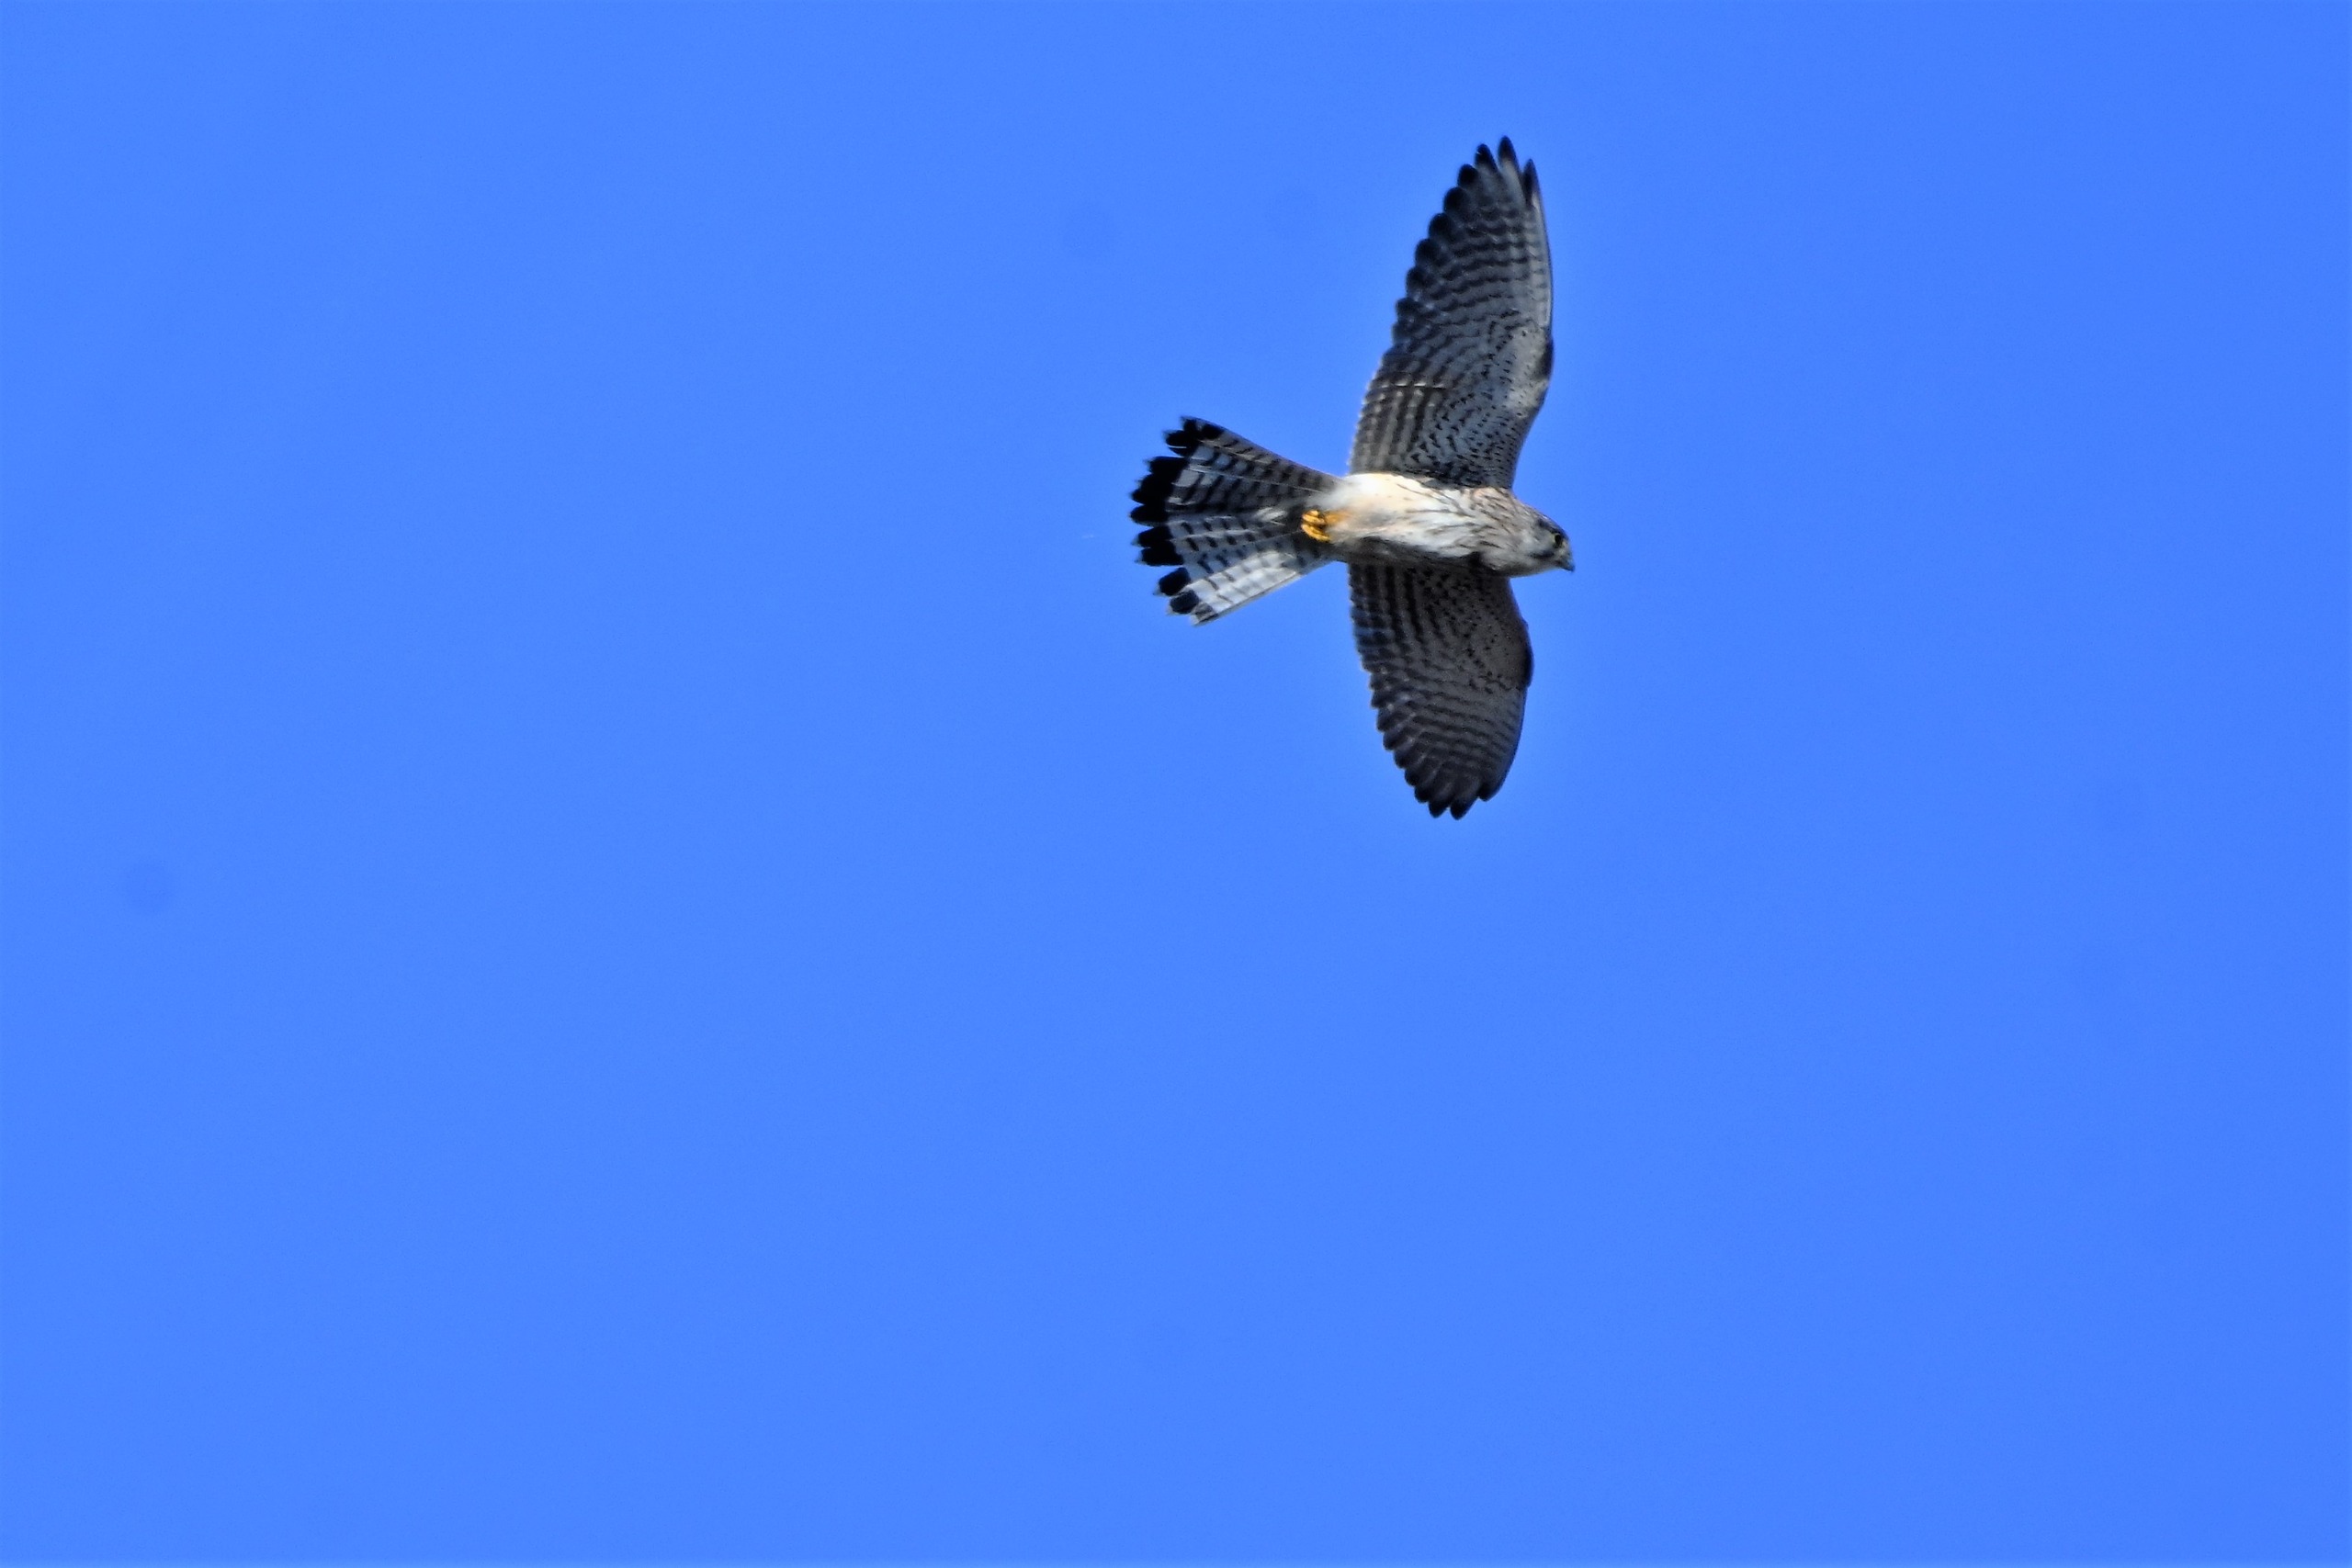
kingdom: Animalia
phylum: Chordata
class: Aves
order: Falconiformes
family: Falconidae
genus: Falco
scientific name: Falco tinnunculus
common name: Tårnfalk
